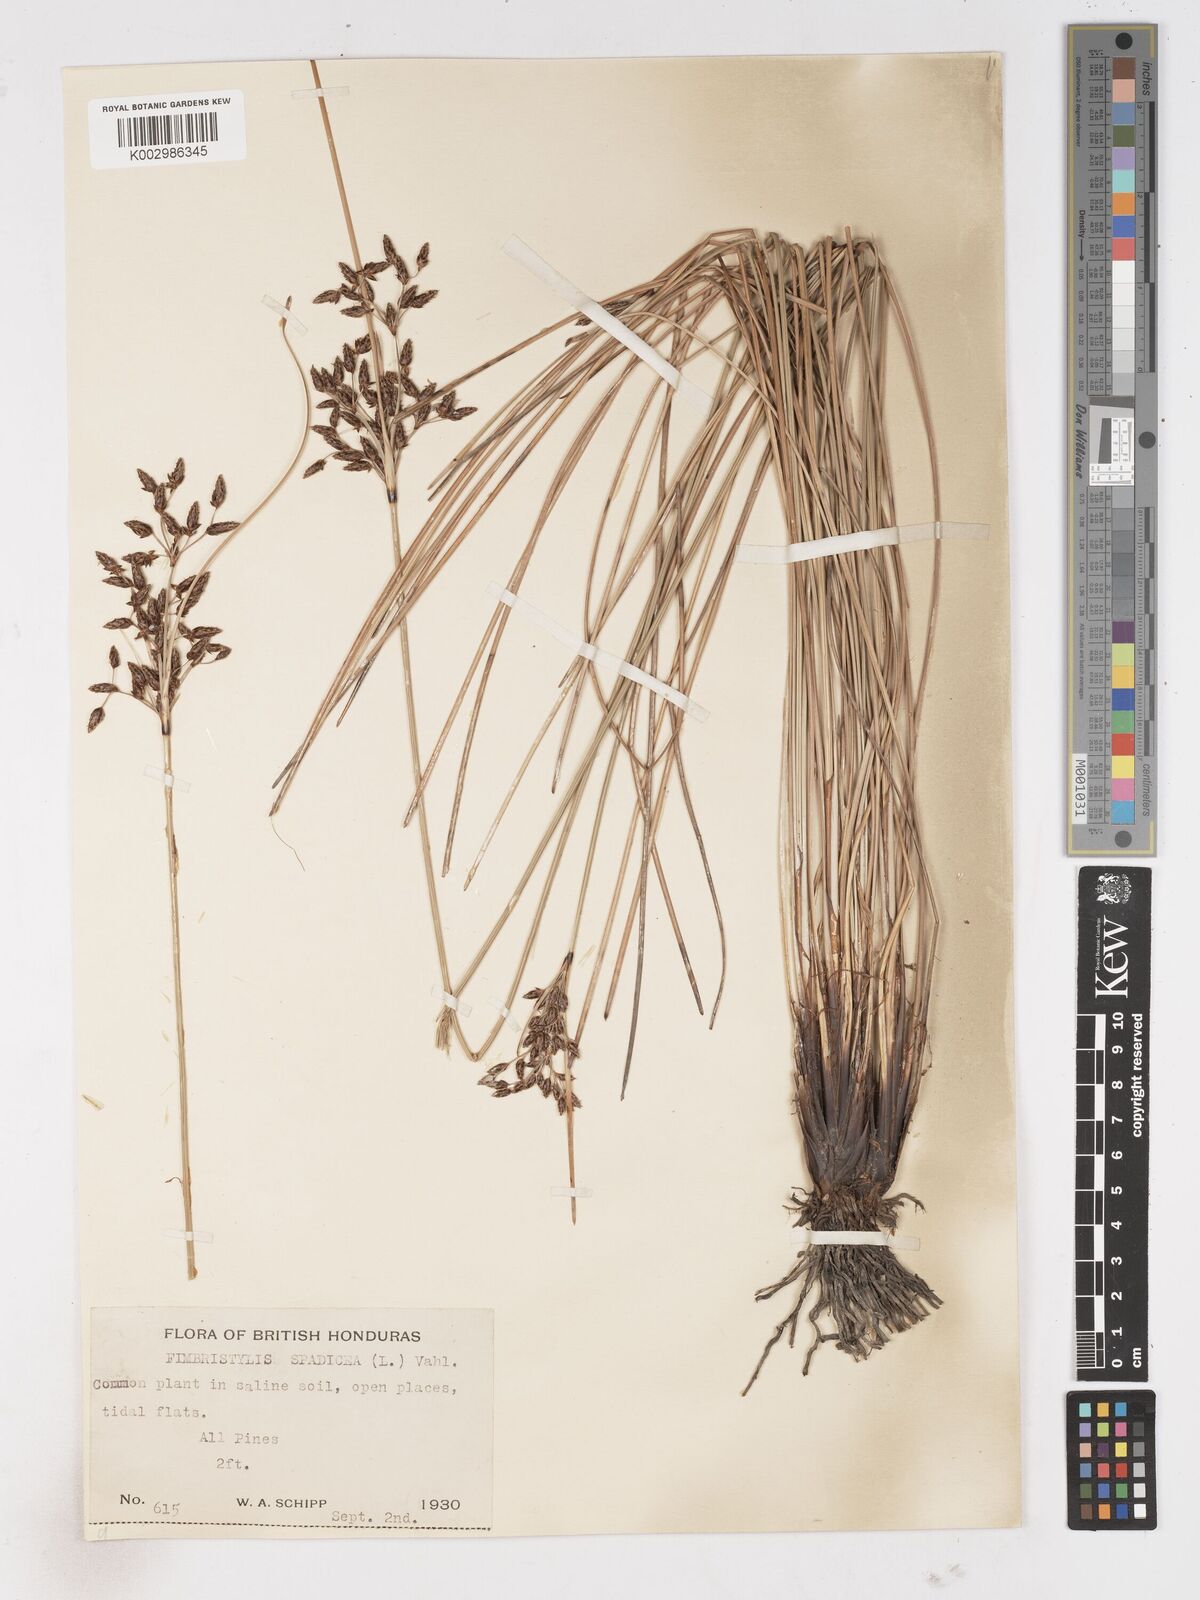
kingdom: Plantae
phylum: Tracheophyta
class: Liliopsida
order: Poales
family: Cyperaceae
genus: Fimbristylis
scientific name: Fimbristylis spadicea
